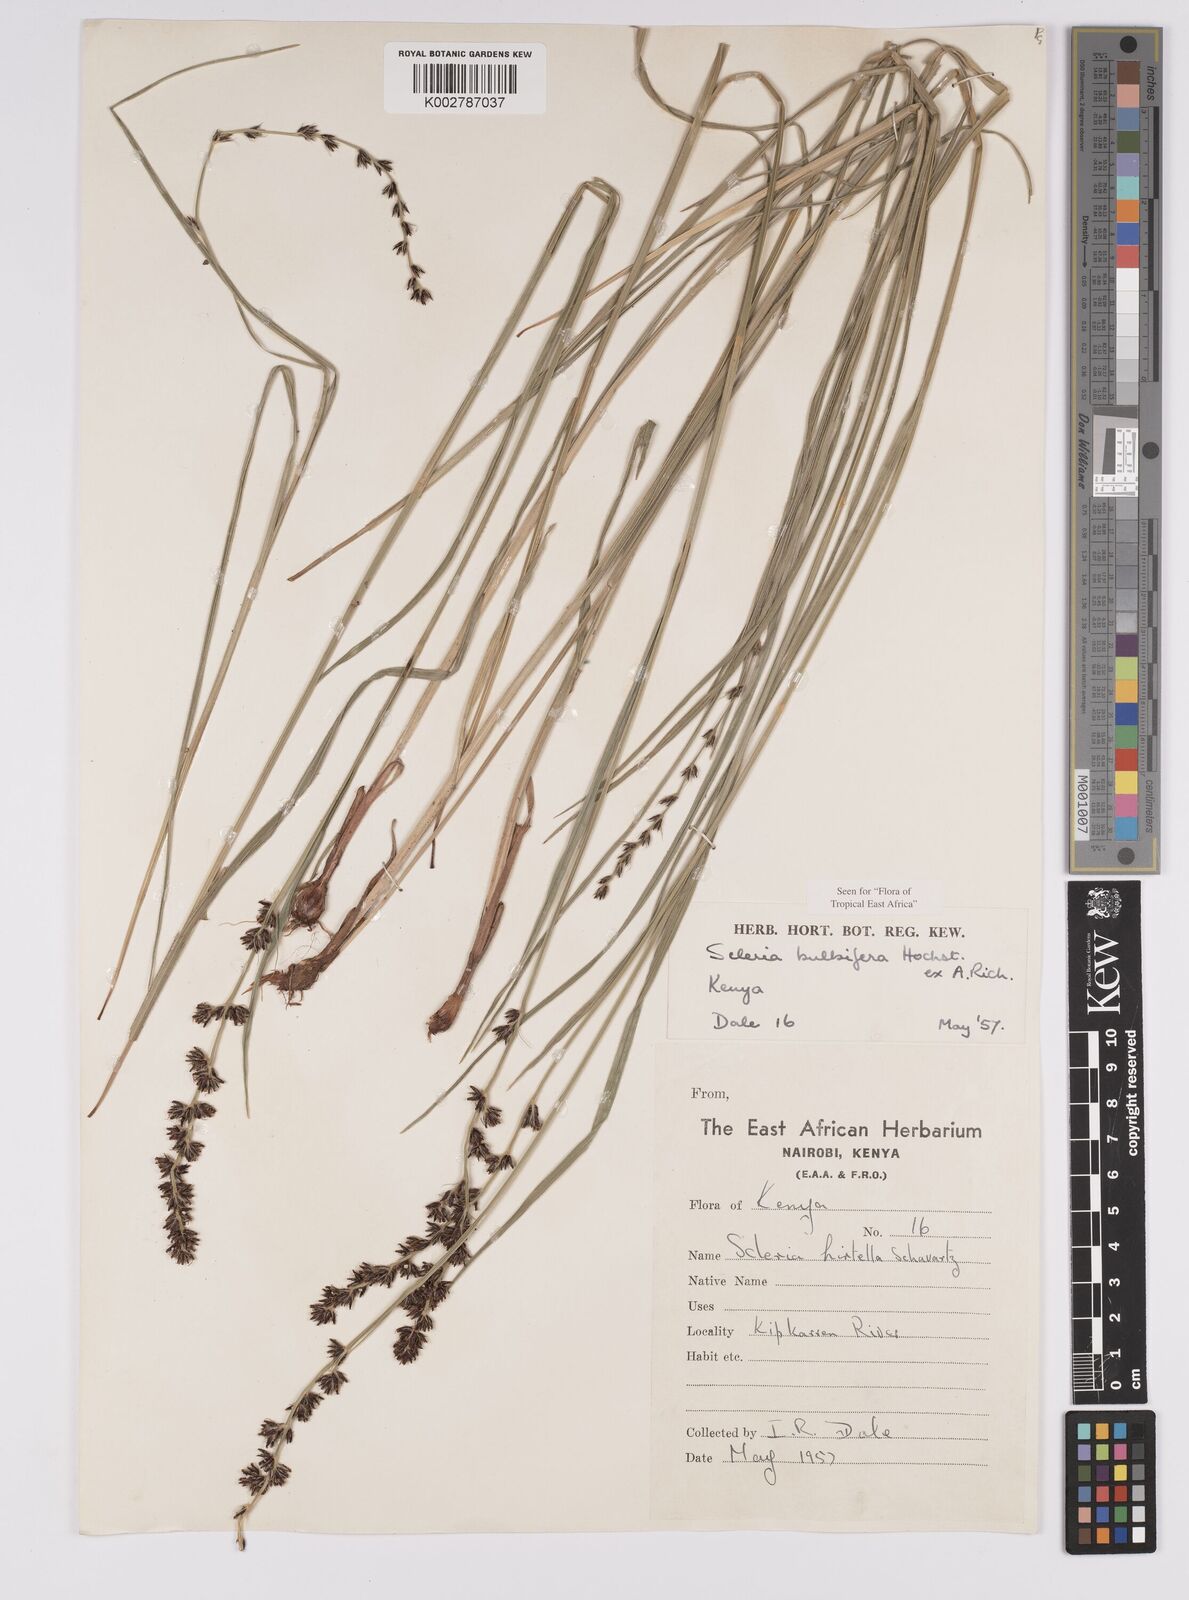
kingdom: Plantae
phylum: Tracheophyta
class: Liliopsida
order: Poales
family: Cyperaceae
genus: Scleria
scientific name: Scleria bulbifera
